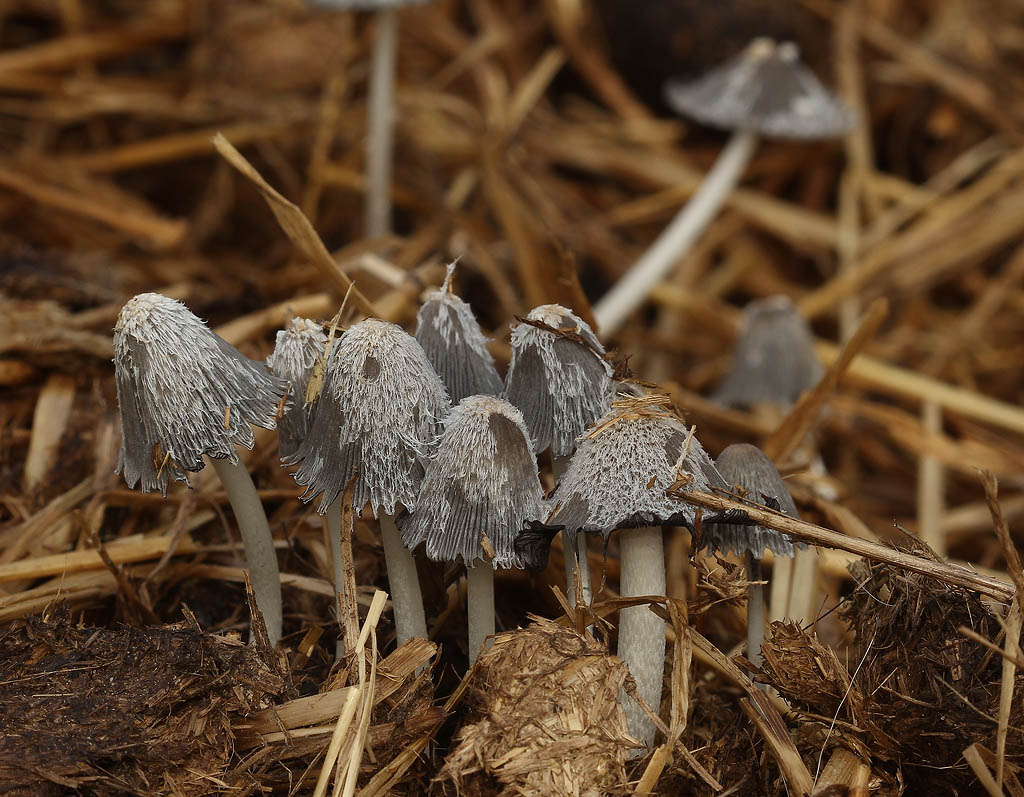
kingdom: Fungi
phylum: Basidiomycota
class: Agaricomycetes
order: Agaricales
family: Psathyrellaceae
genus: Coprinopsis
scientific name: Coprinopsis cinerea
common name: mødding-blækhat
